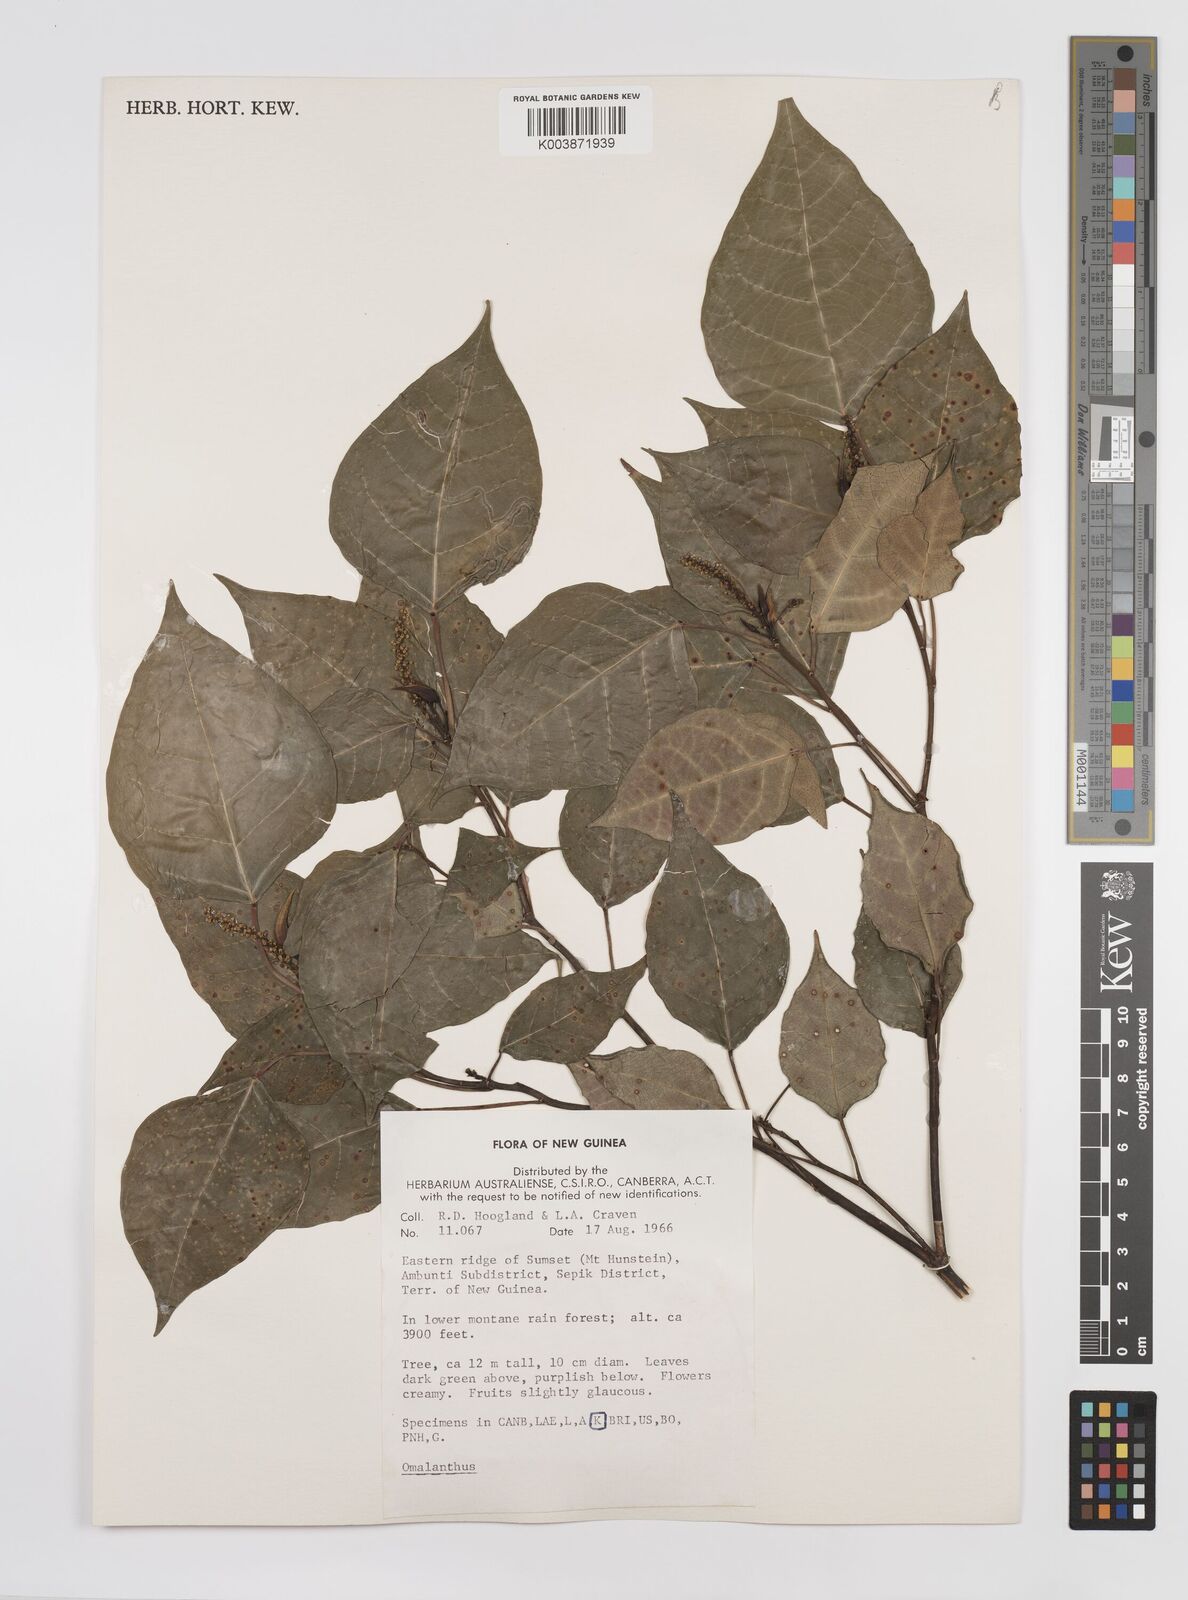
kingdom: Plantae
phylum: Tracheophyta
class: Magnoliopsida
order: Malpighiales
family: Euphorbiaceae
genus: Homalanthus
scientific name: Homalanthus novoguineensis
